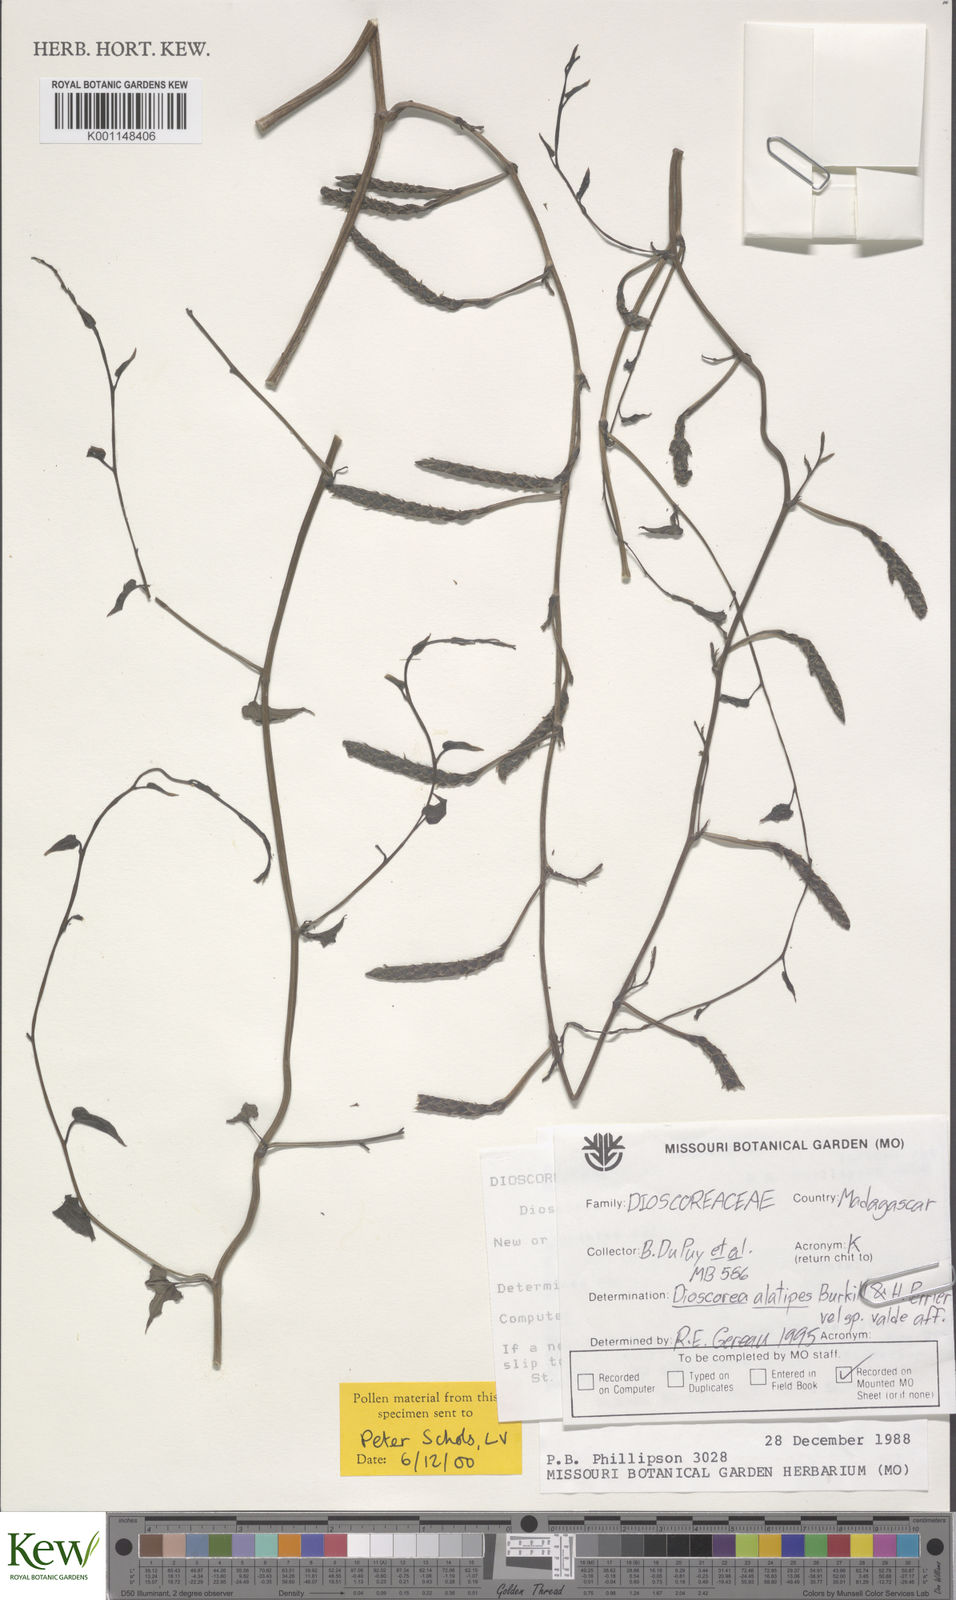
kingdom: Plantae
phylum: Tracheophyta
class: Liliopsida
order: Dioscoreales
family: Dioscoreaceae
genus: Dioscorea
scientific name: Dioscorea alatipes
